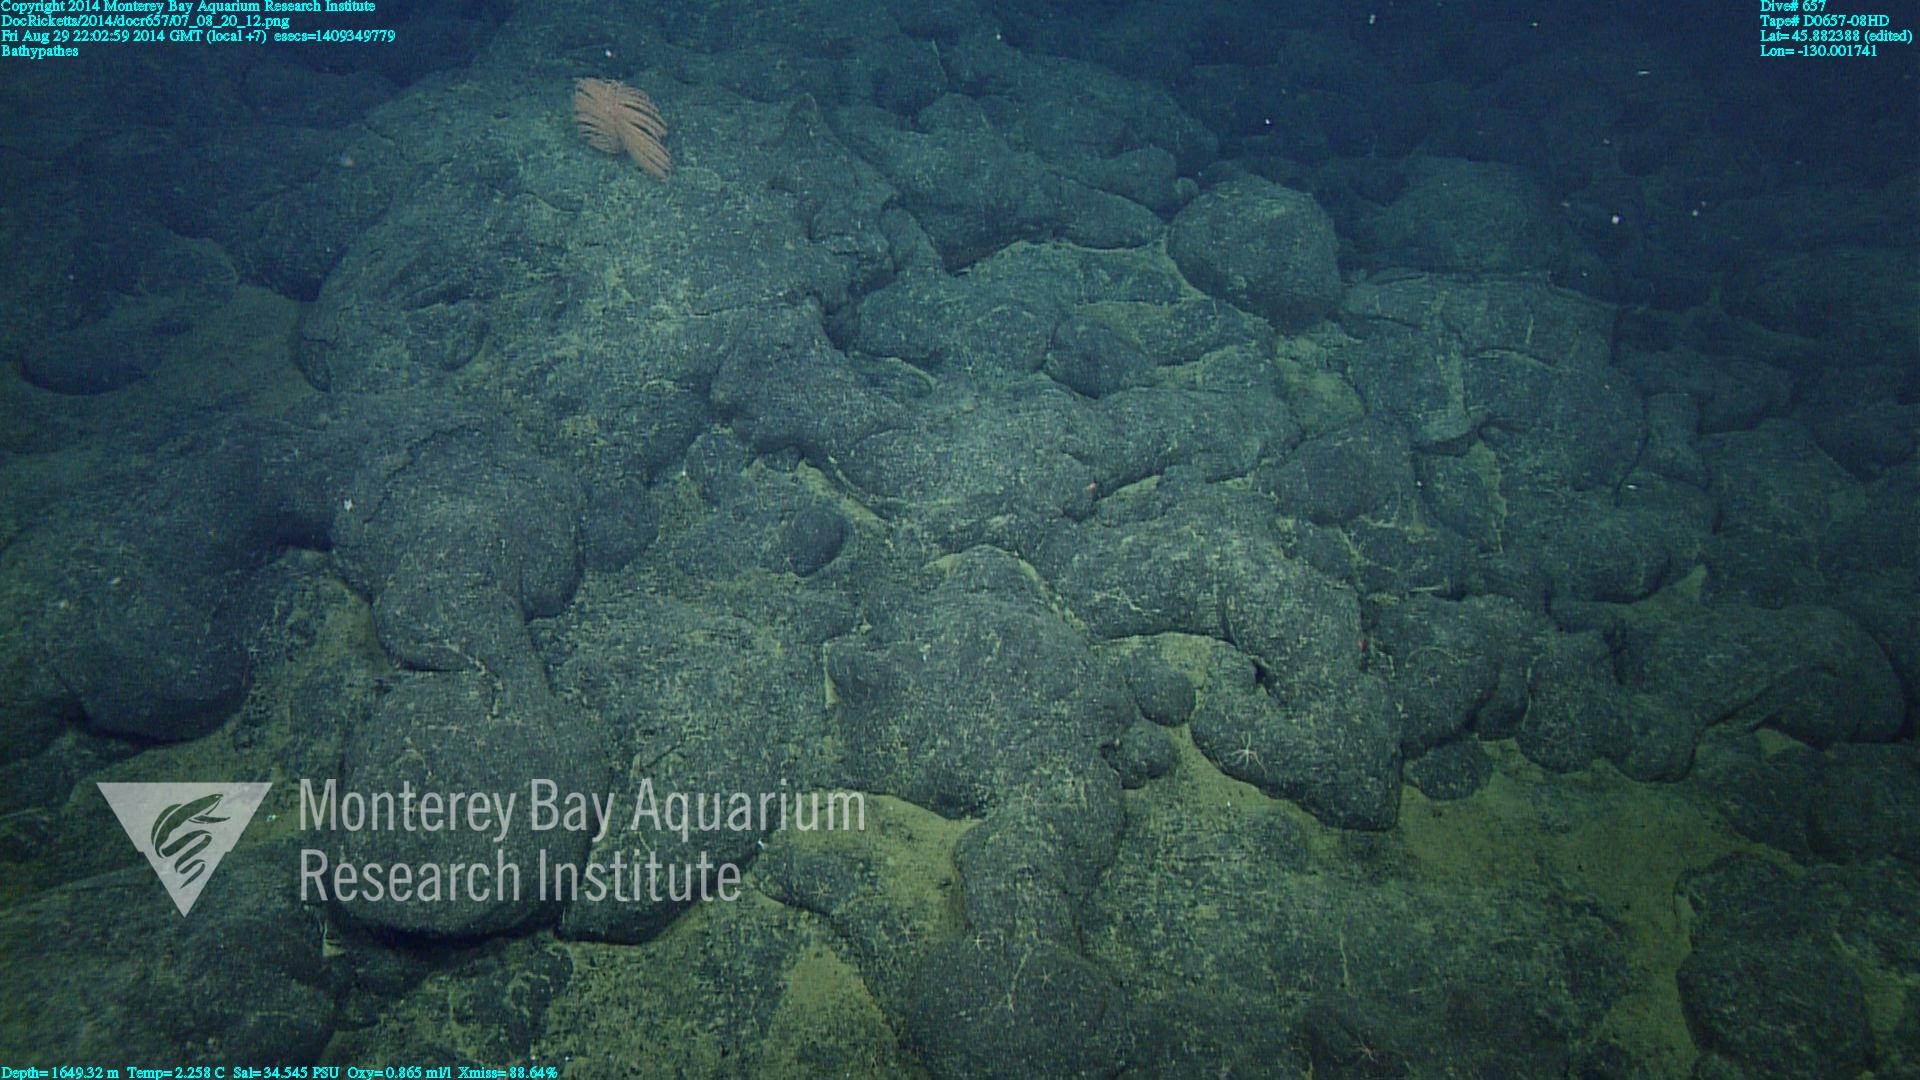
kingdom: Animalia
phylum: Cnidaria
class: Anthozoa
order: Antipatharia
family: Schizopathidae
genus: Bathypathes
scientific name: Bathypathes
